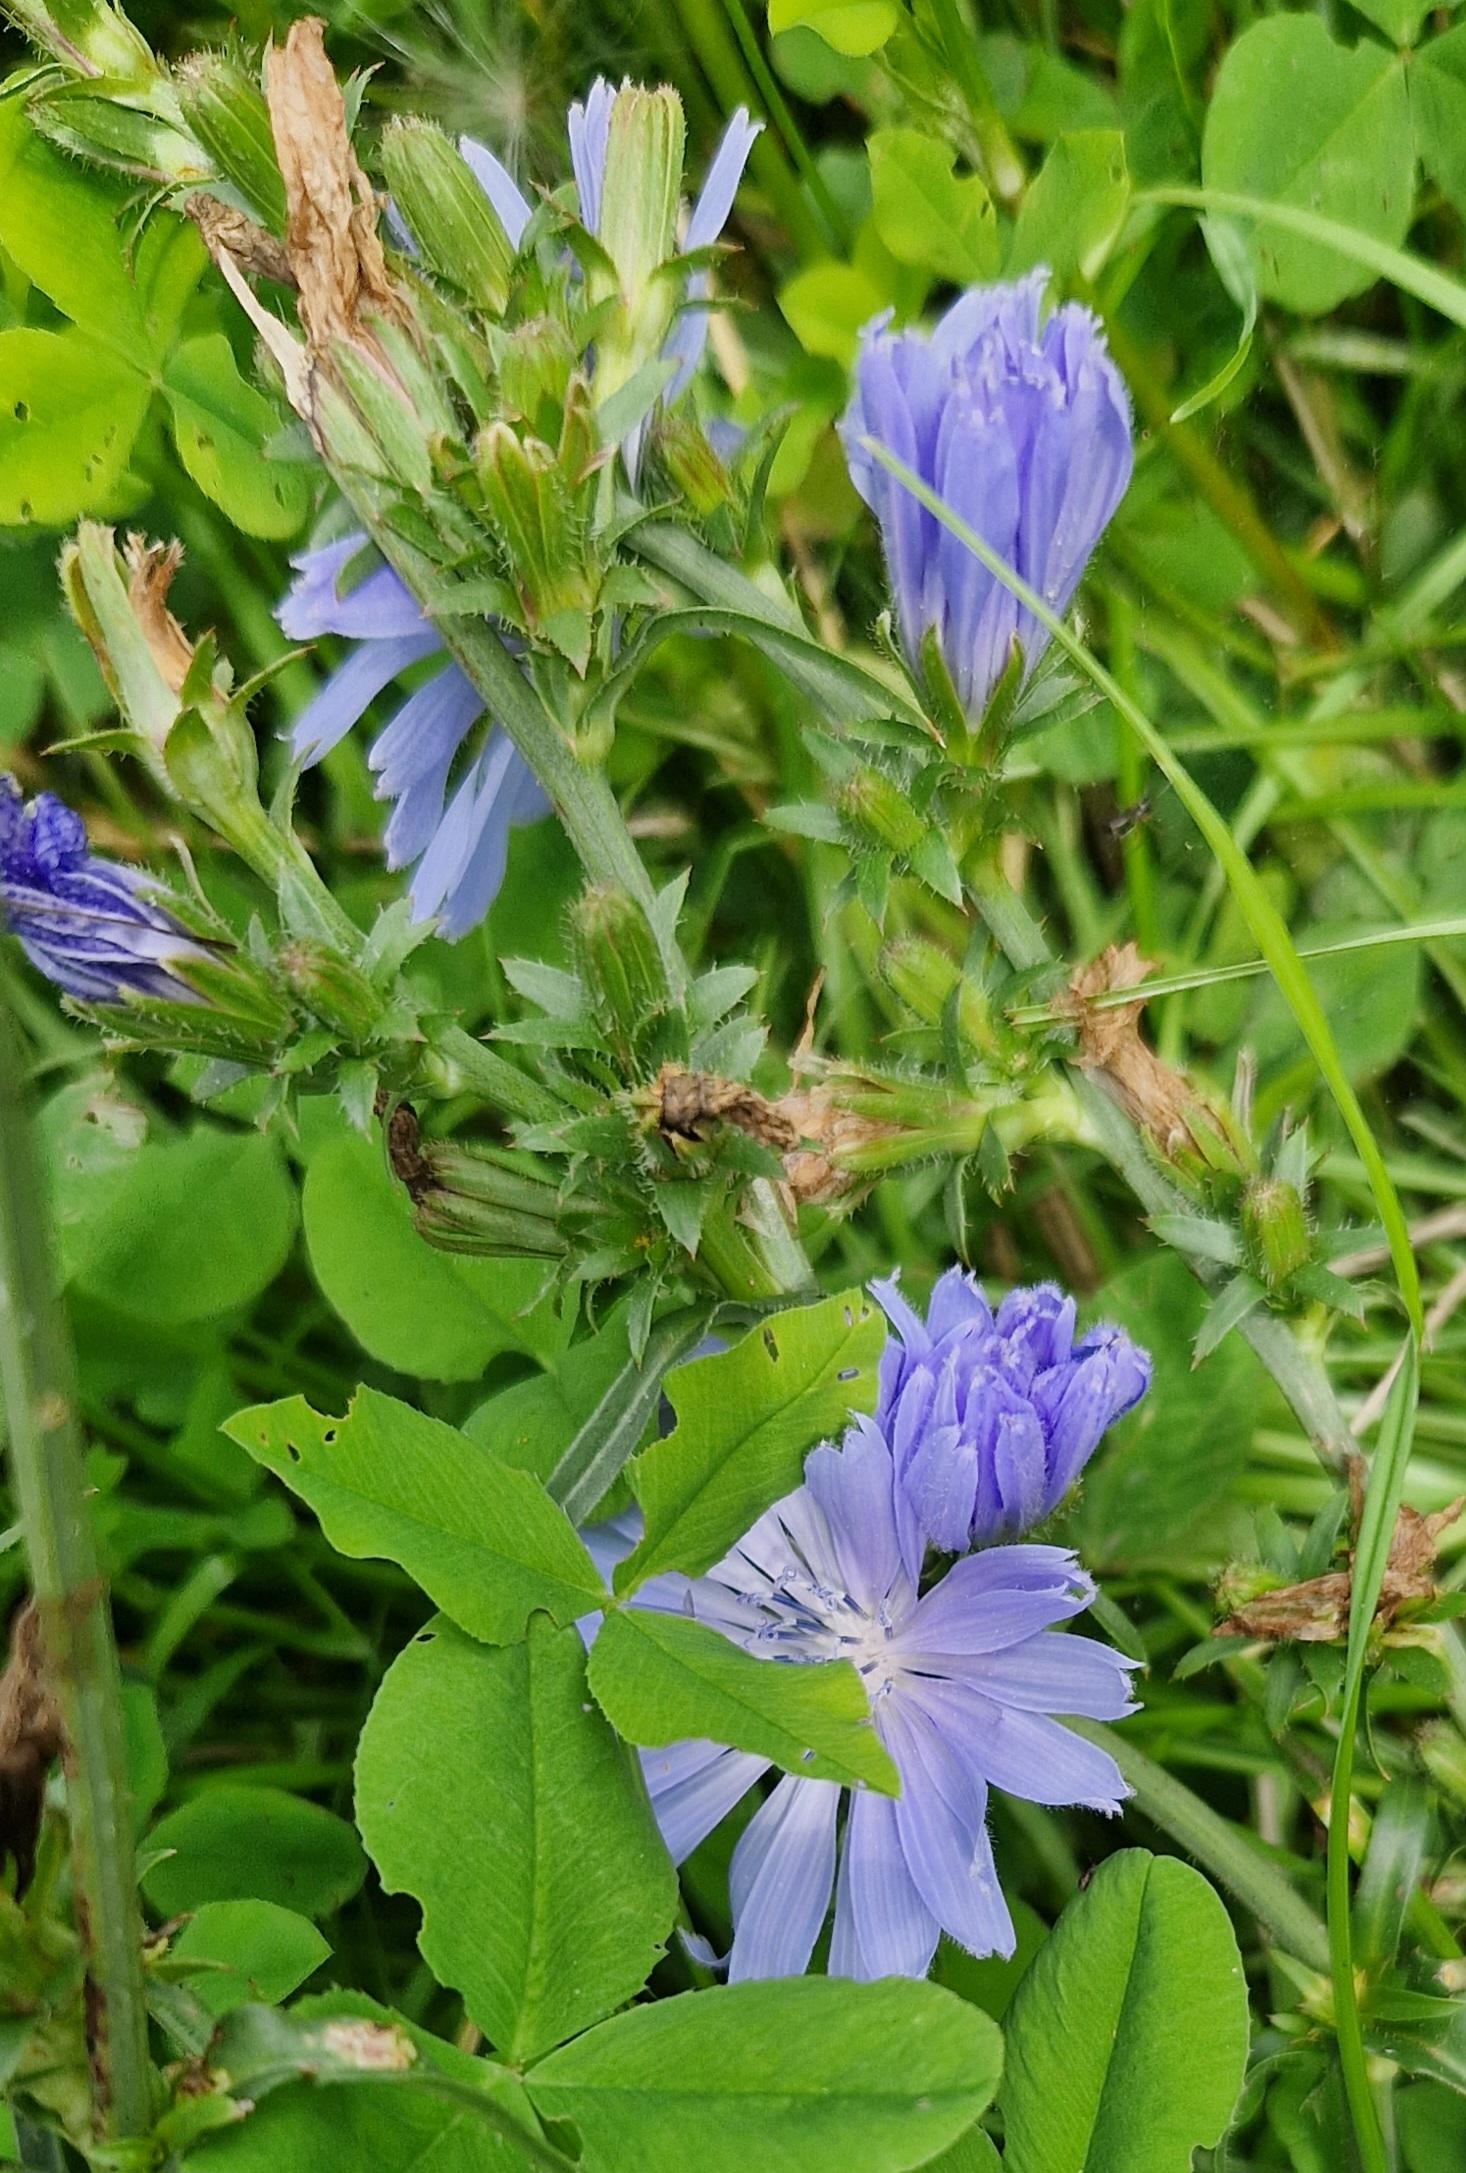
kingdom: Plantae
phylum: Tracheophyta
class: Magnoliopsida
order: Asterales
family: Asteraceae
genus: Cichorium
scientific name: Cichorium intybus
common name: Cikorie
